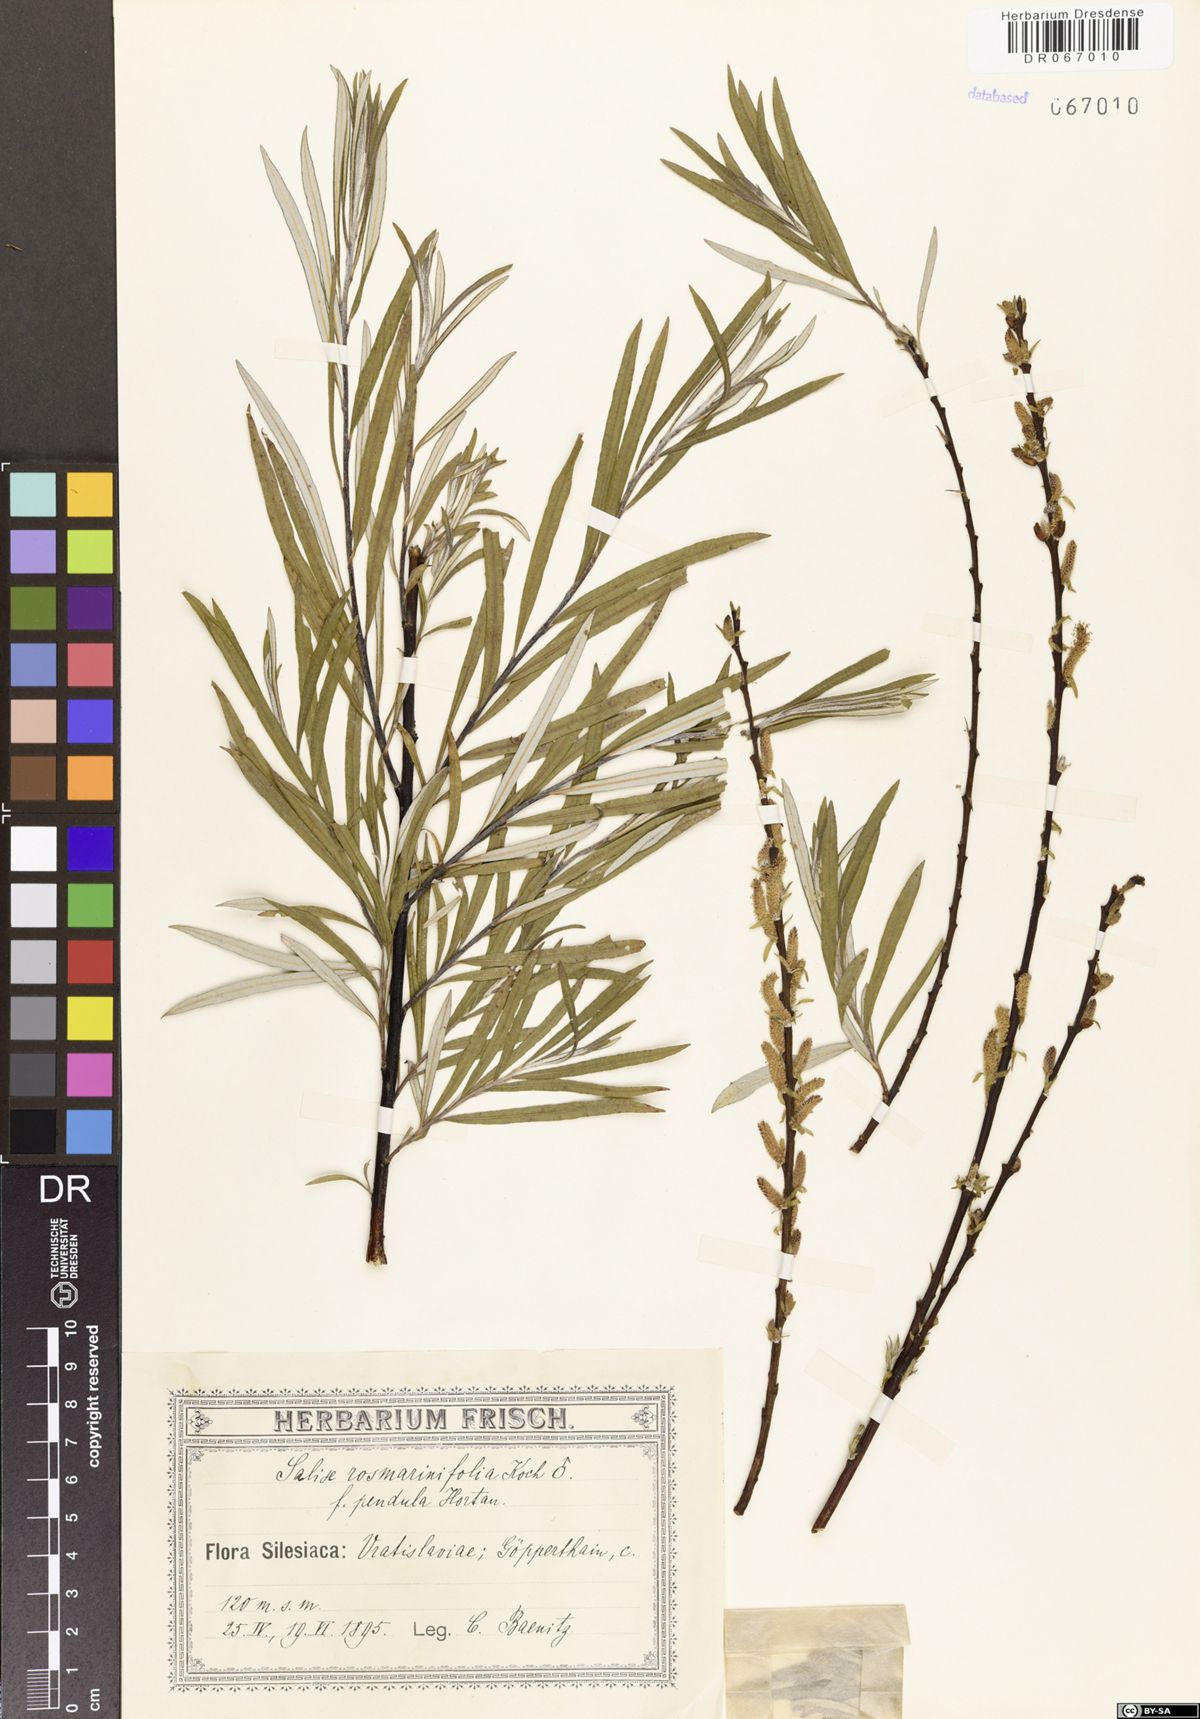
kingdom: Plantae
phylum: Tracheophyta
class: Magnoliopsida
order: Malpighiales
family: Salicaceae
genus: Salix
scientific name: Salix rosmarinifolia
